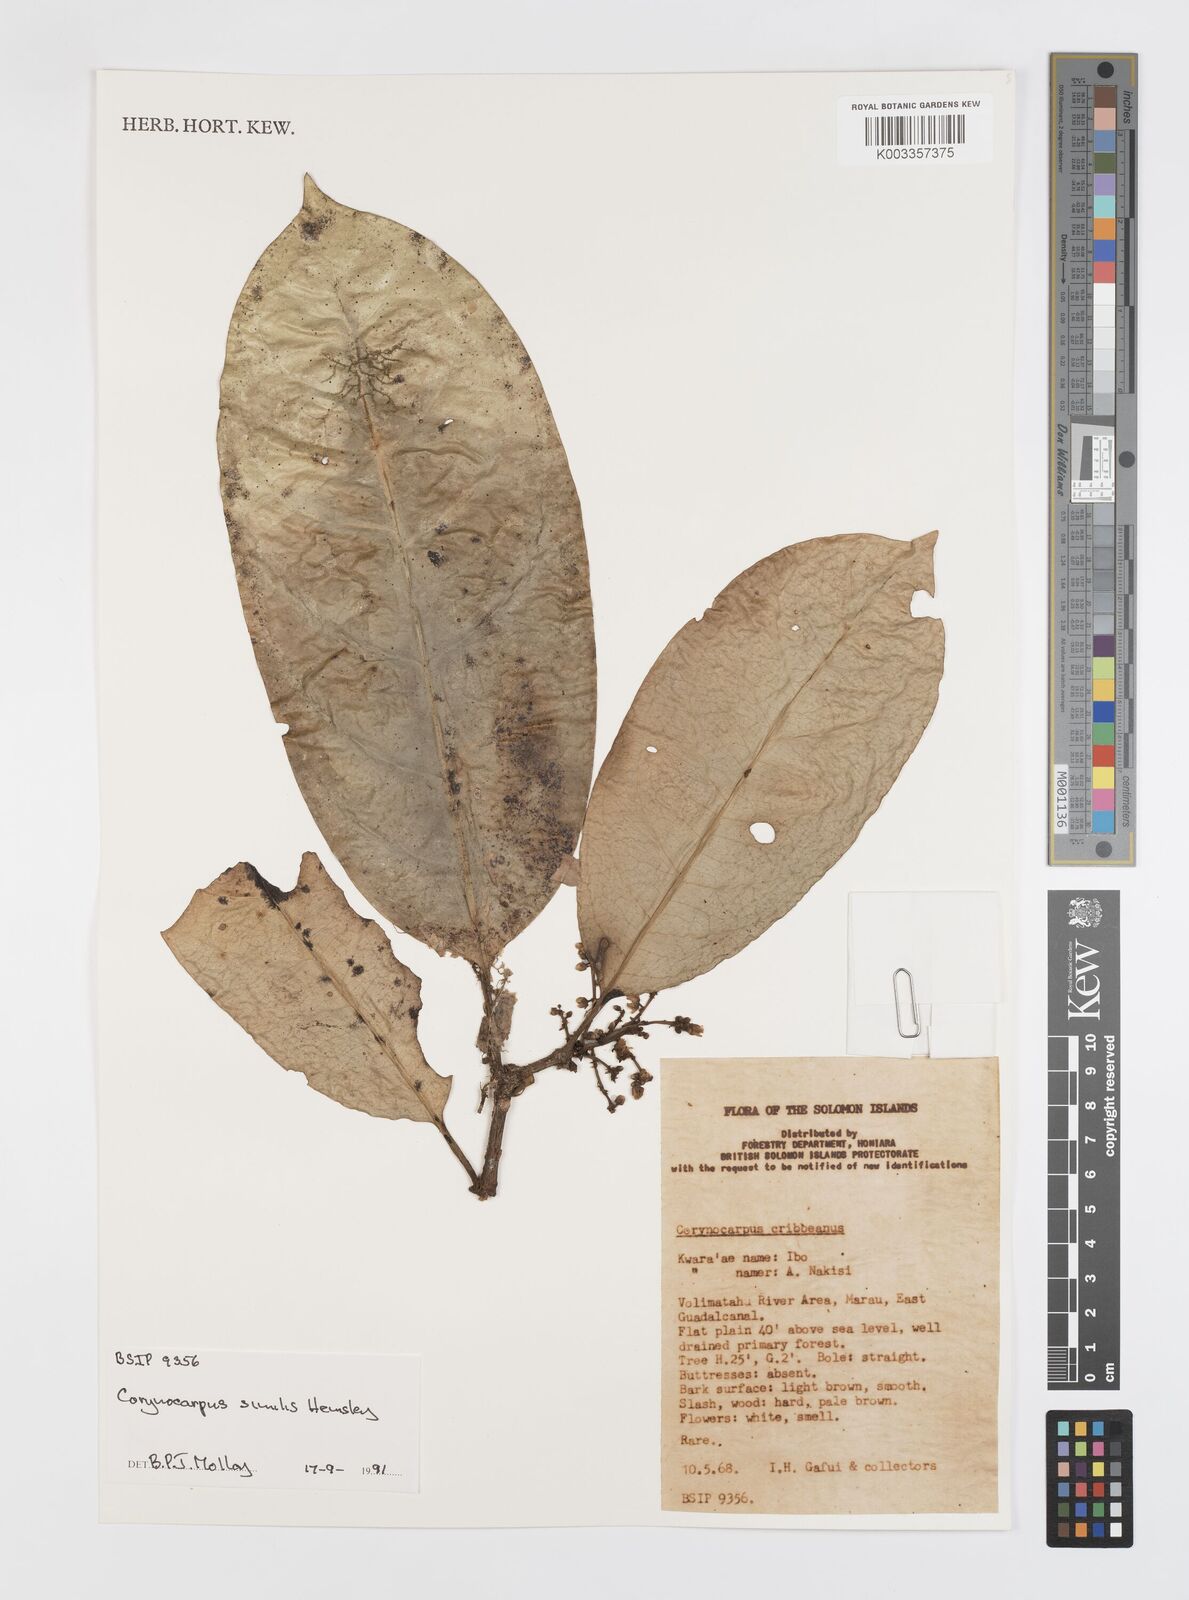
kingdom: Plantae
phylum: Tracheophyta
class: Magnoliopsida
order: Cucurbitales
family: Corynocarpaceae
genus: Corynocarpus
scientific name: Corynocarpus similis
